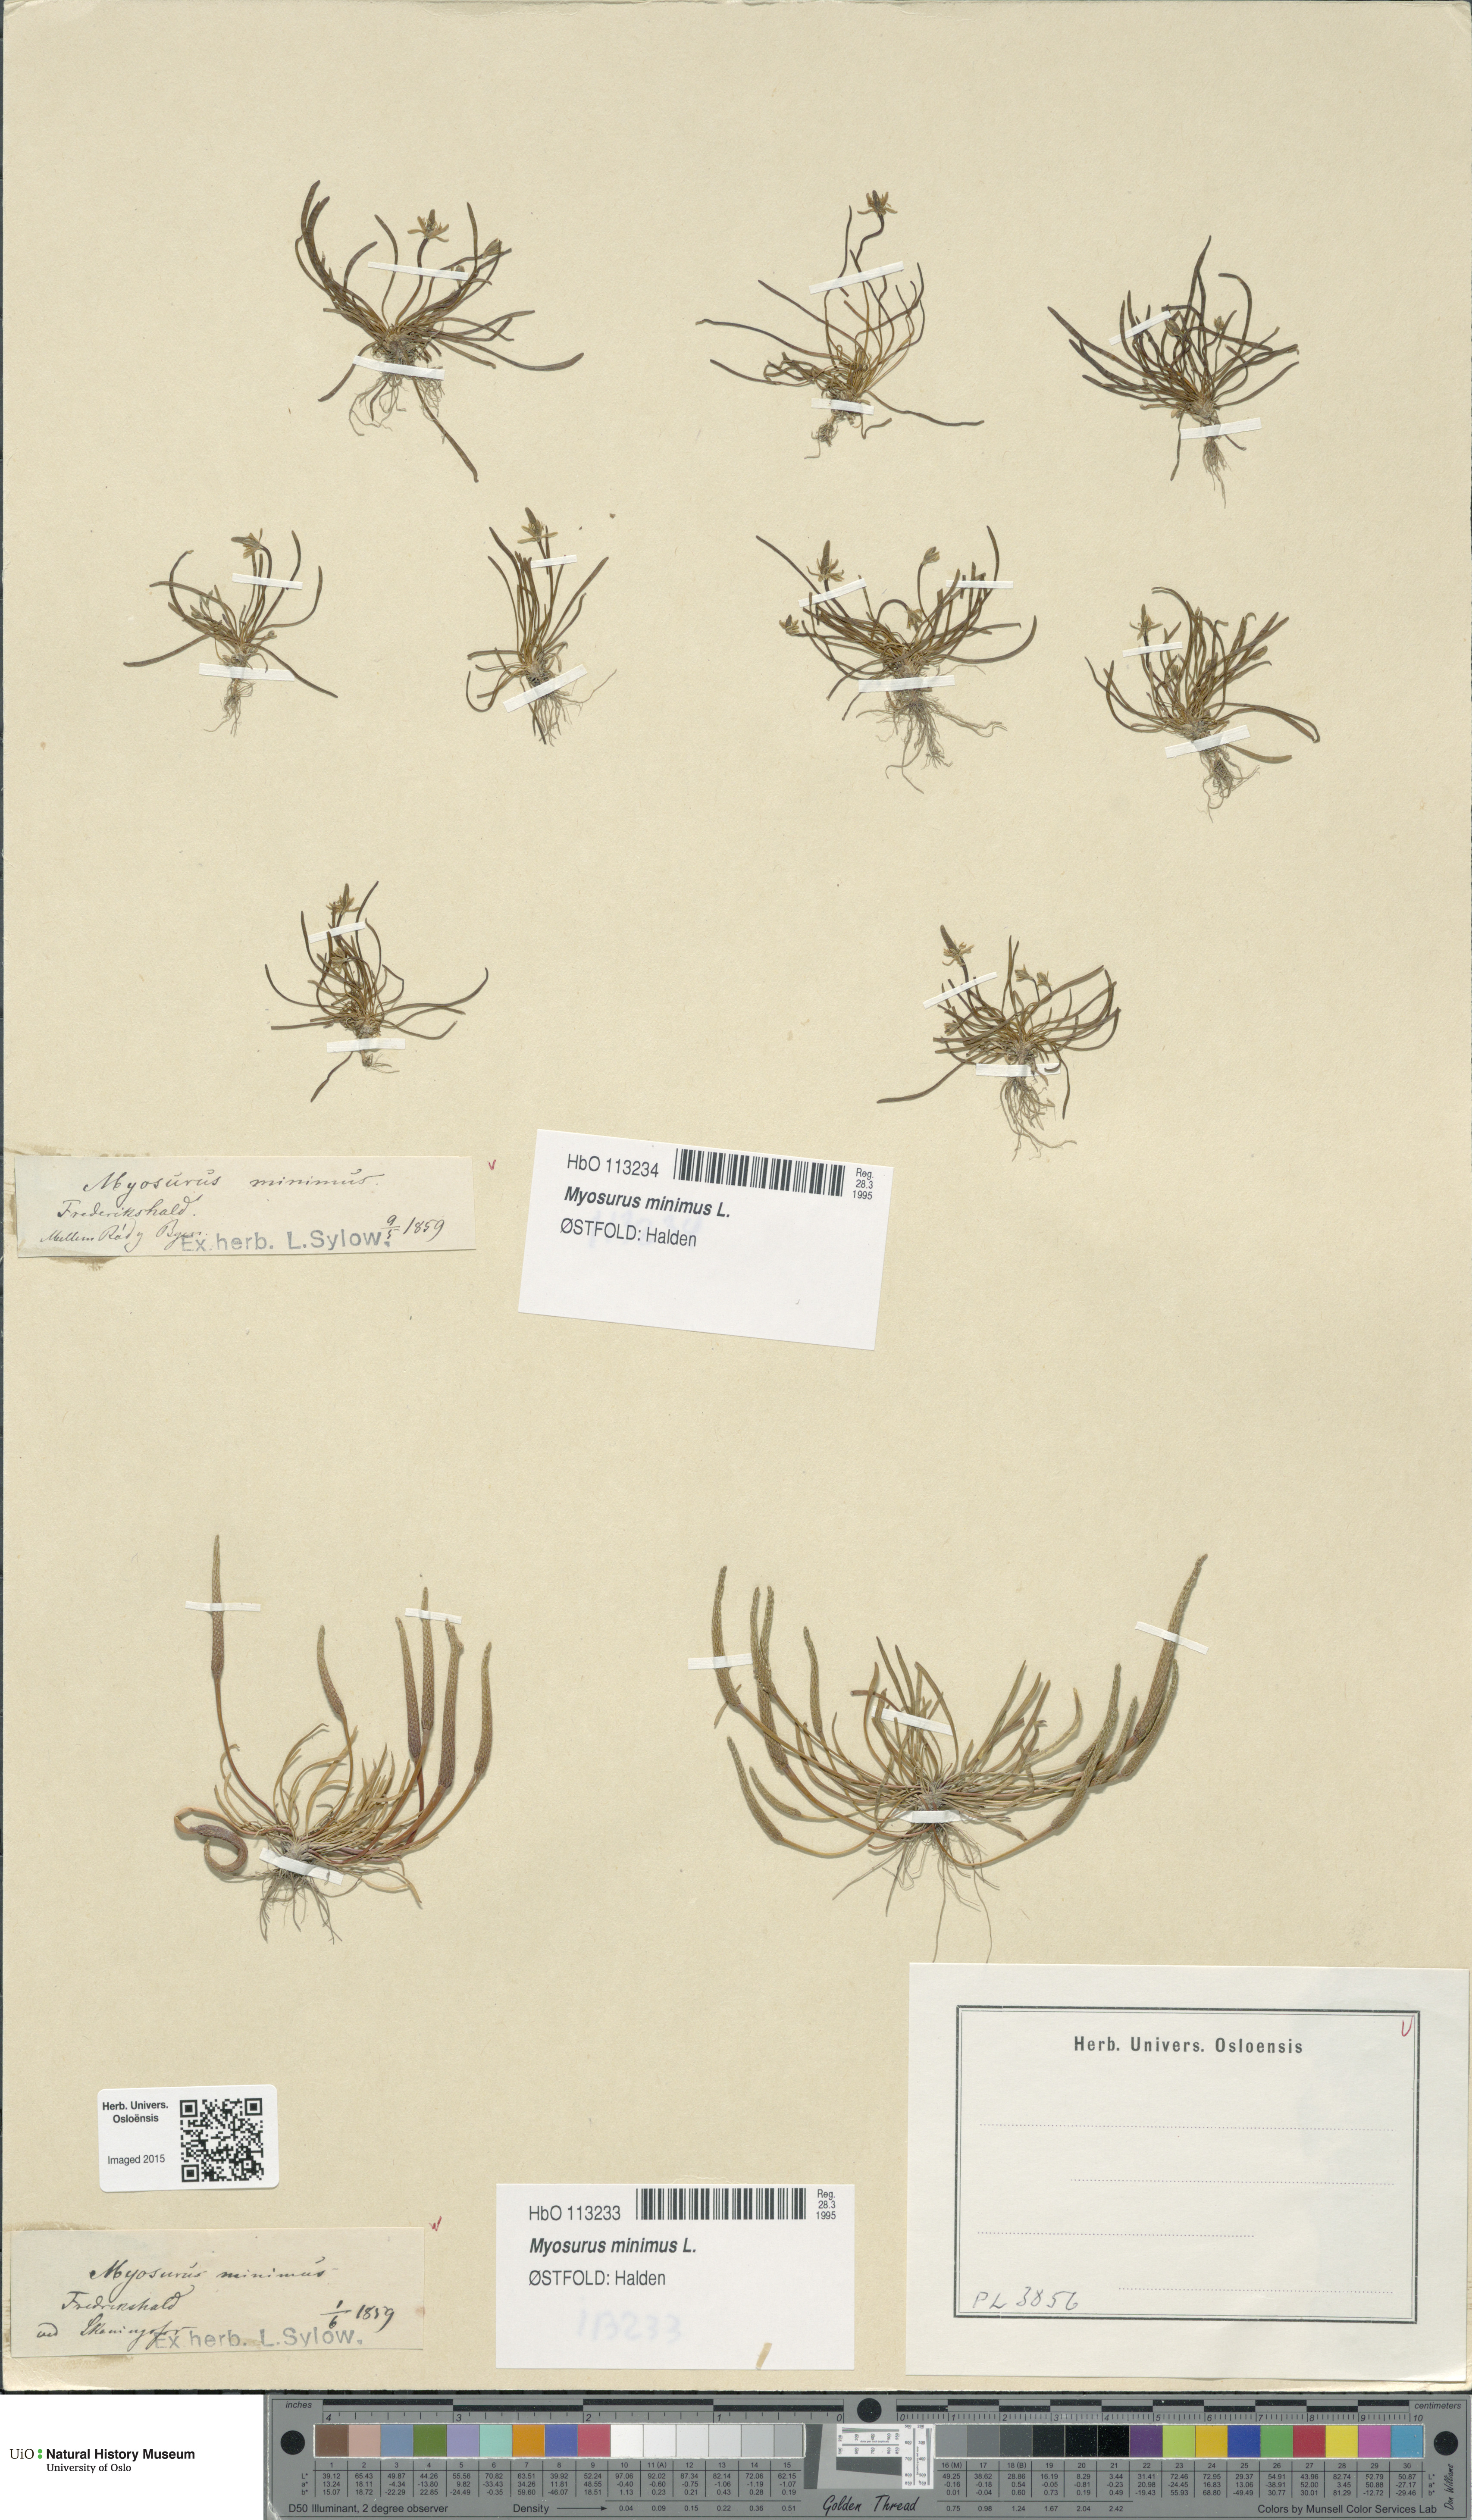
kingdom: Plantae
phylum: Tracheophyta
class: Magnoliopsida
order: Ranunculales
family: Ranunculaceae
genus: Myosurus
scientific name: Myosurus minimus
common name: Mousetail
